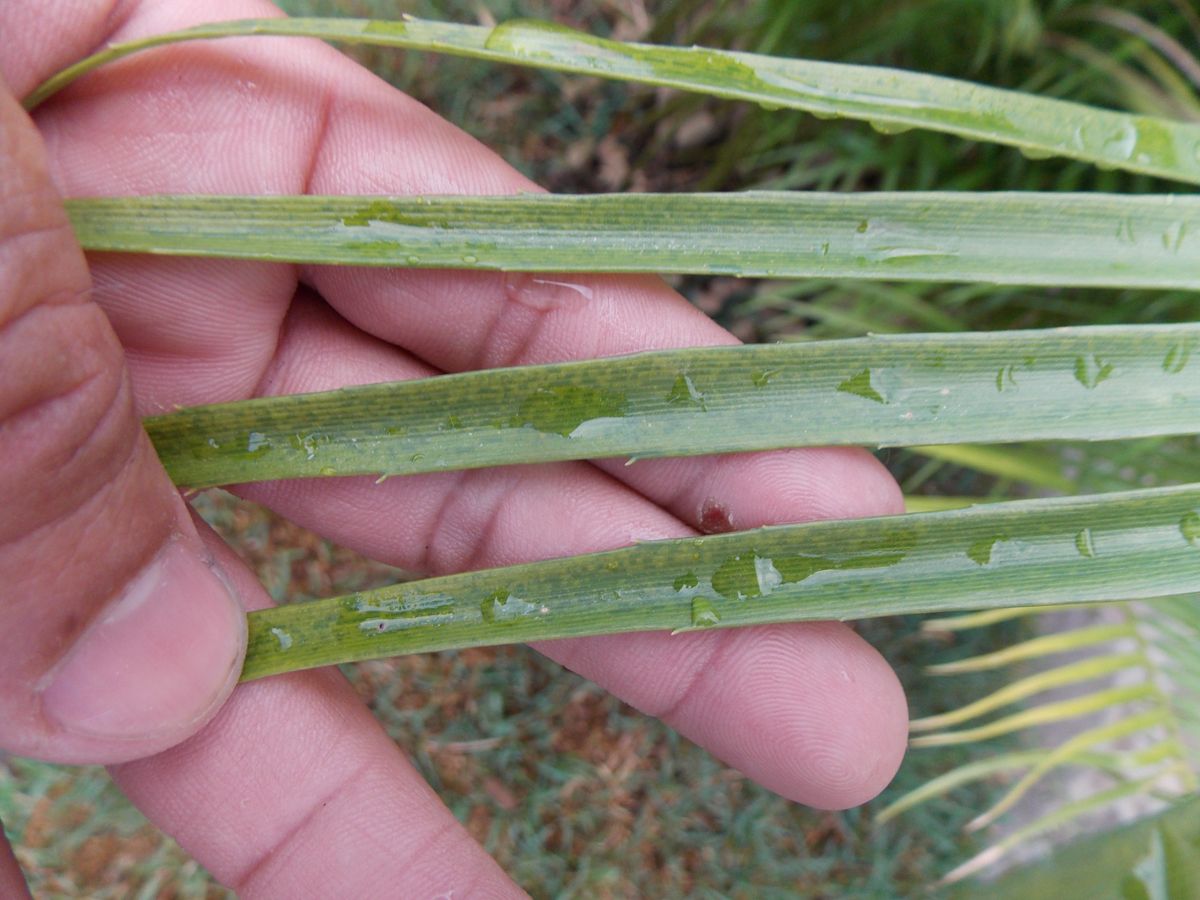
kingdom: Plantae
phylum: Tracheophyta
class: Cycadopsida
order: Cycadales
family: Zamiaceae
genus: Zamia
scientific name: Zamia herrerae
